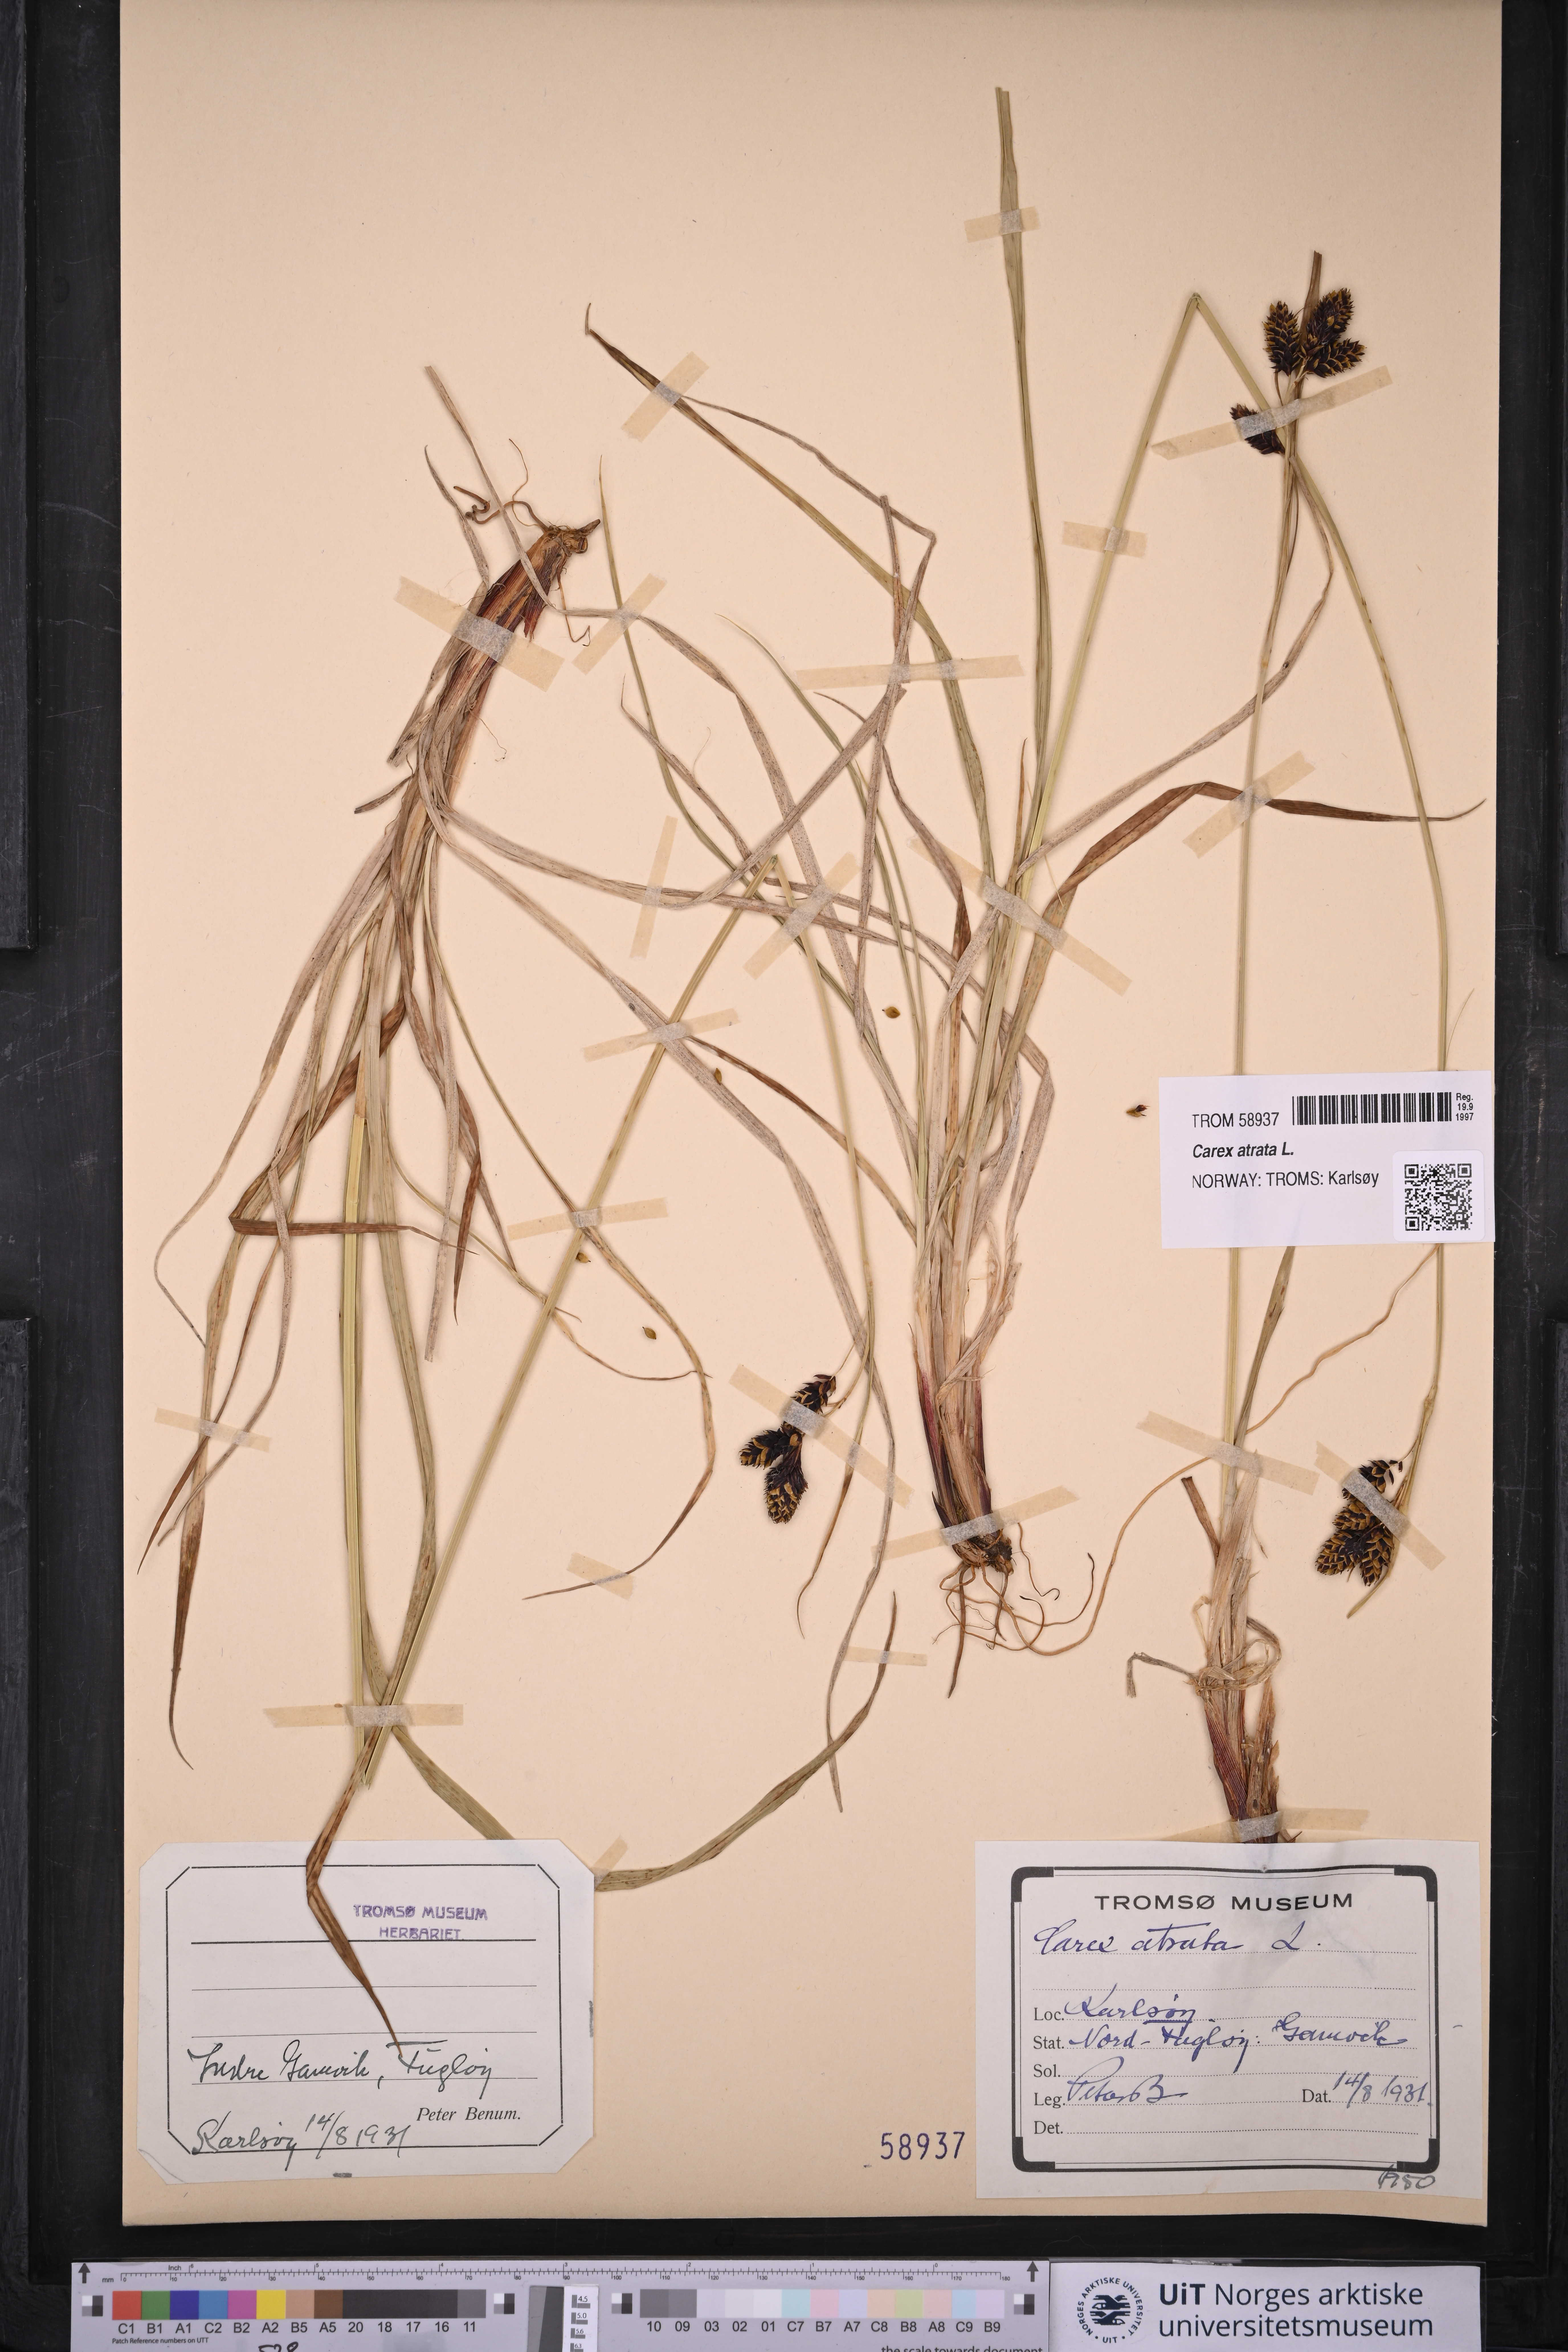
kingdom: Plantae
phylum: Tracheophyta
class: Liliopsida
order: Poales
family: Cyperaceae
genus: Carex
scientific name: Carex atrata
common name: Black alpine sedge
